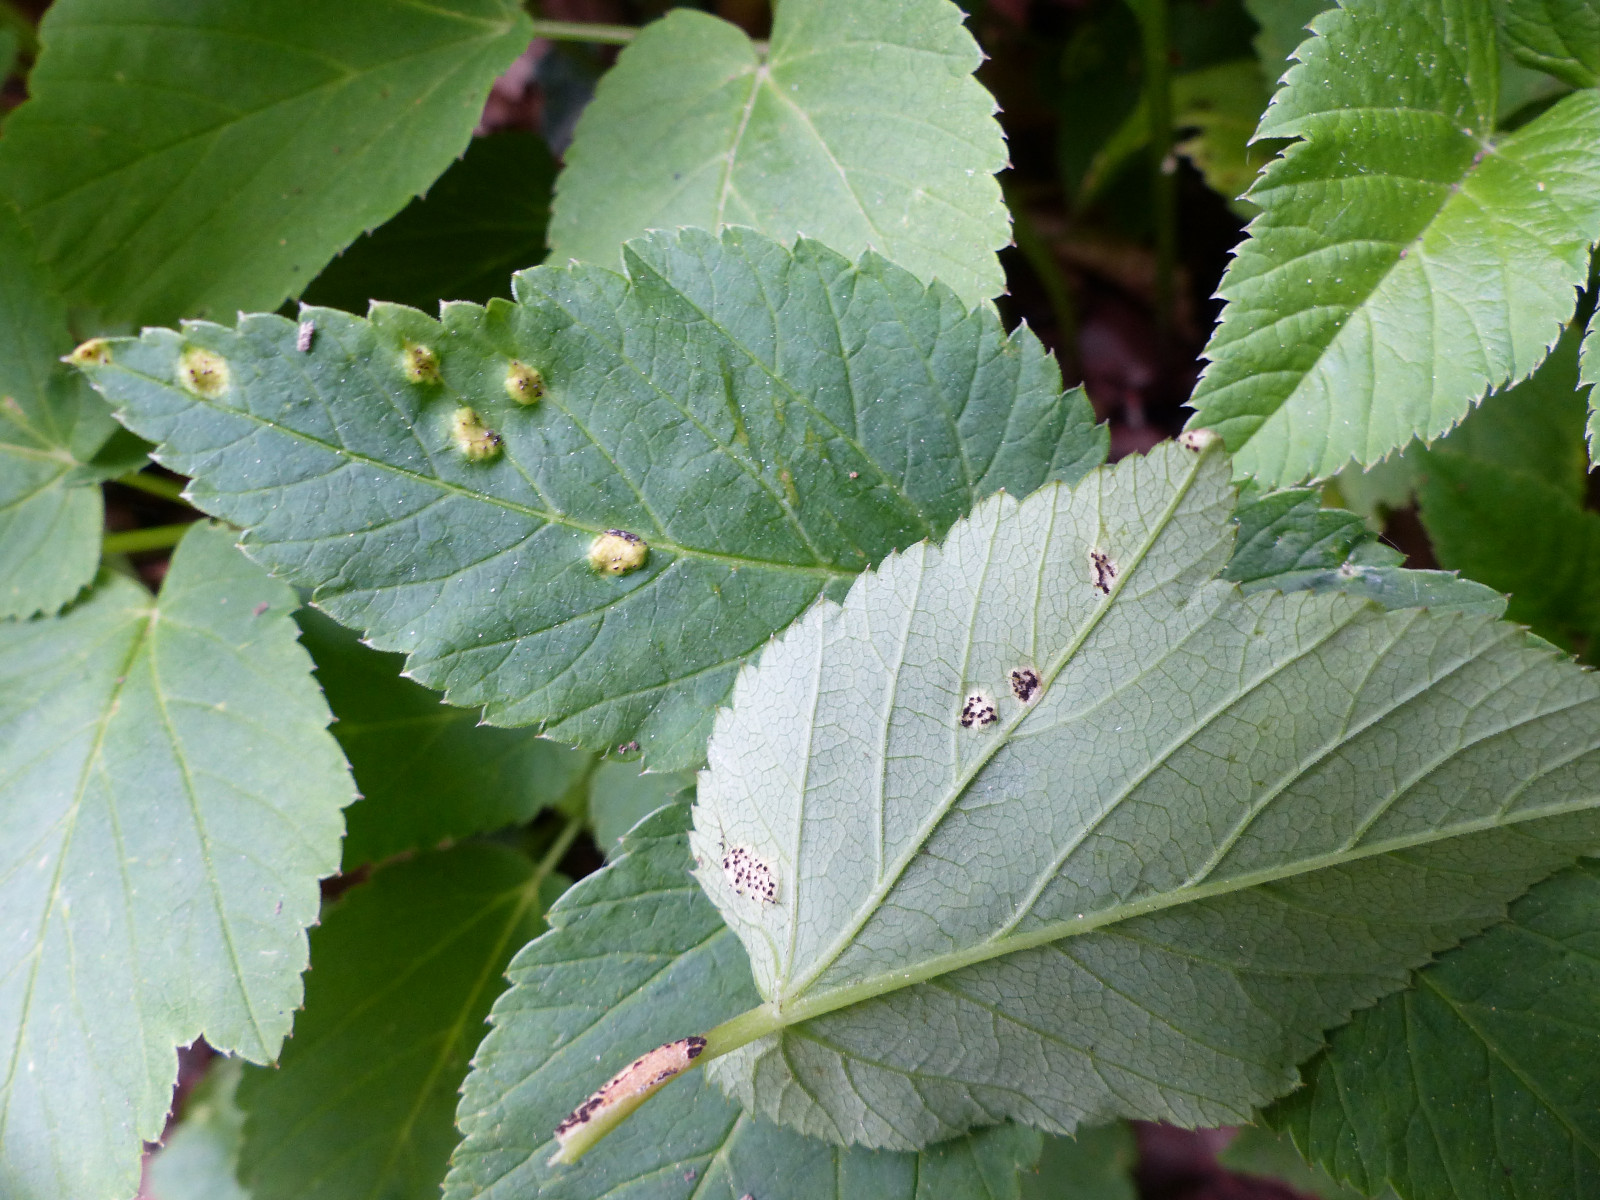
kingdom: Fungi
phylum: Basidiomycota
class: Pucciniomycetes
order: Pucciniales
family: Pucciniaceae
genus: Puccinia
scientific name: Puccinia
